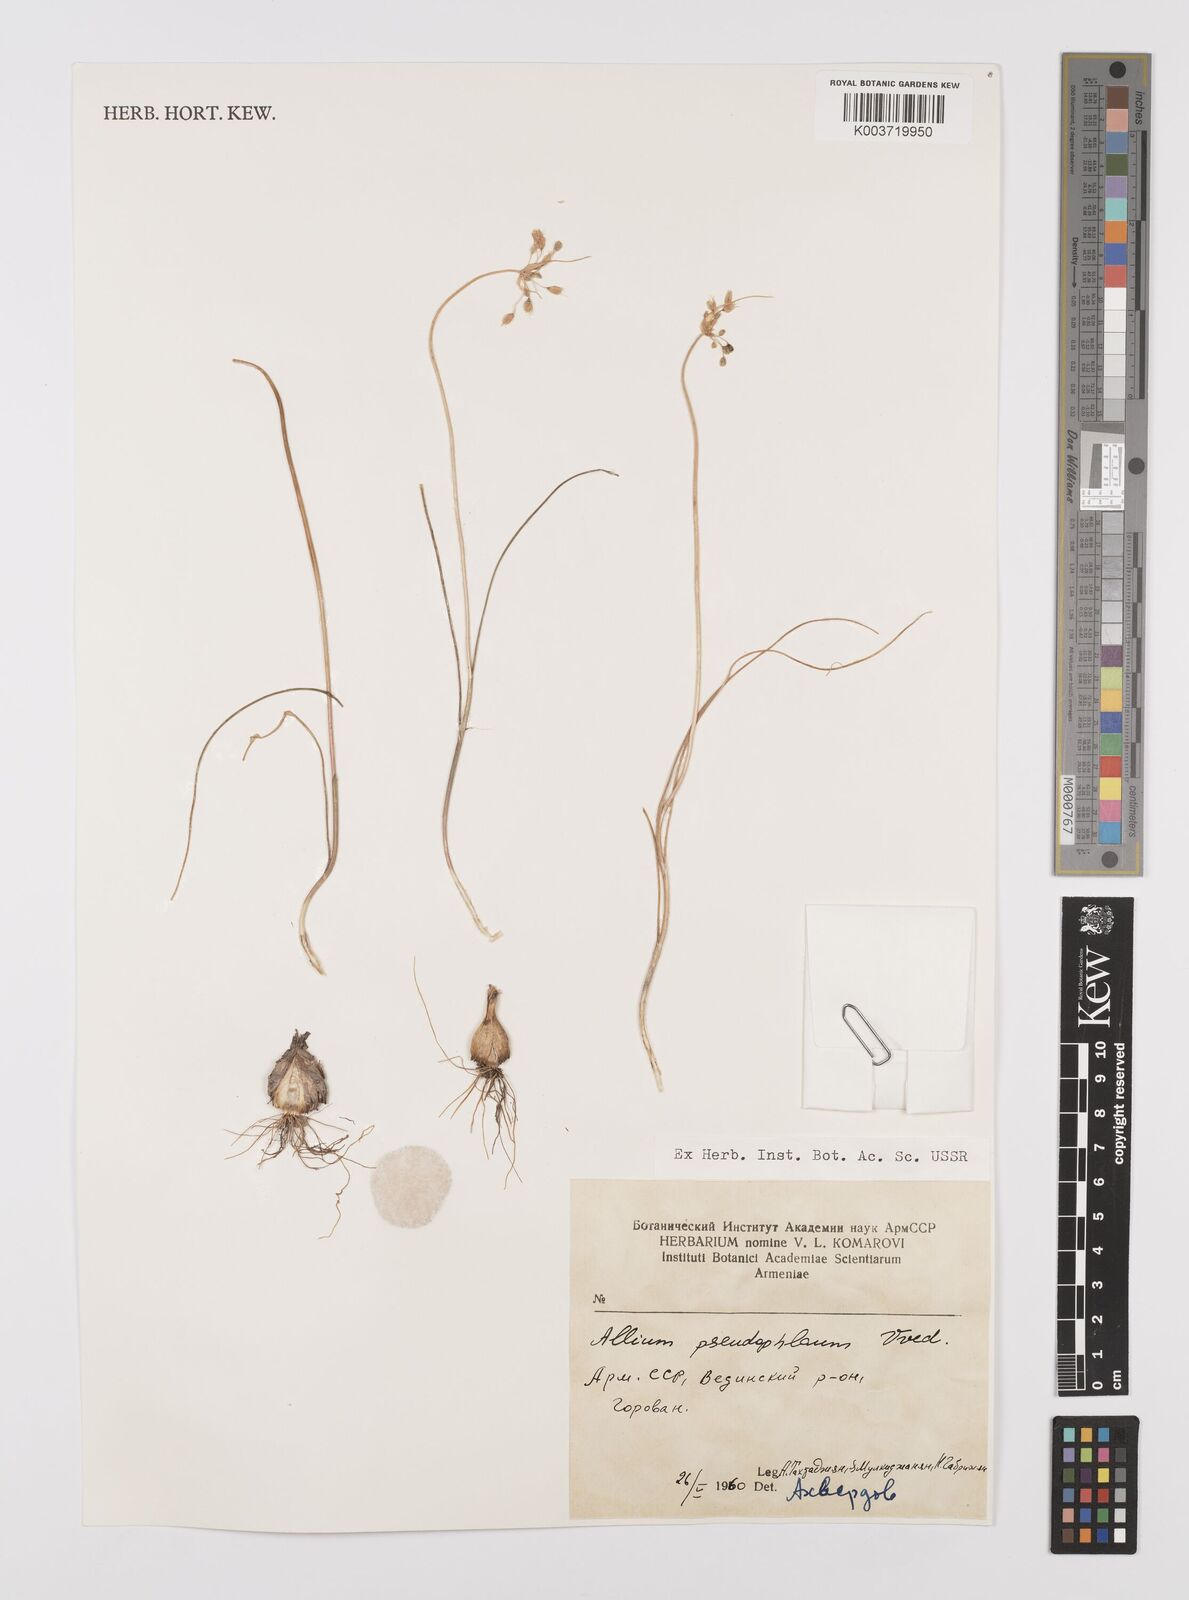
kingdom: Plantae
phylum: Tracheophyta
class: Liliopsida
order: Asparagales
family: Amaryllidaceae
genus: Allium
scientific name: Allium pseudoflavum
